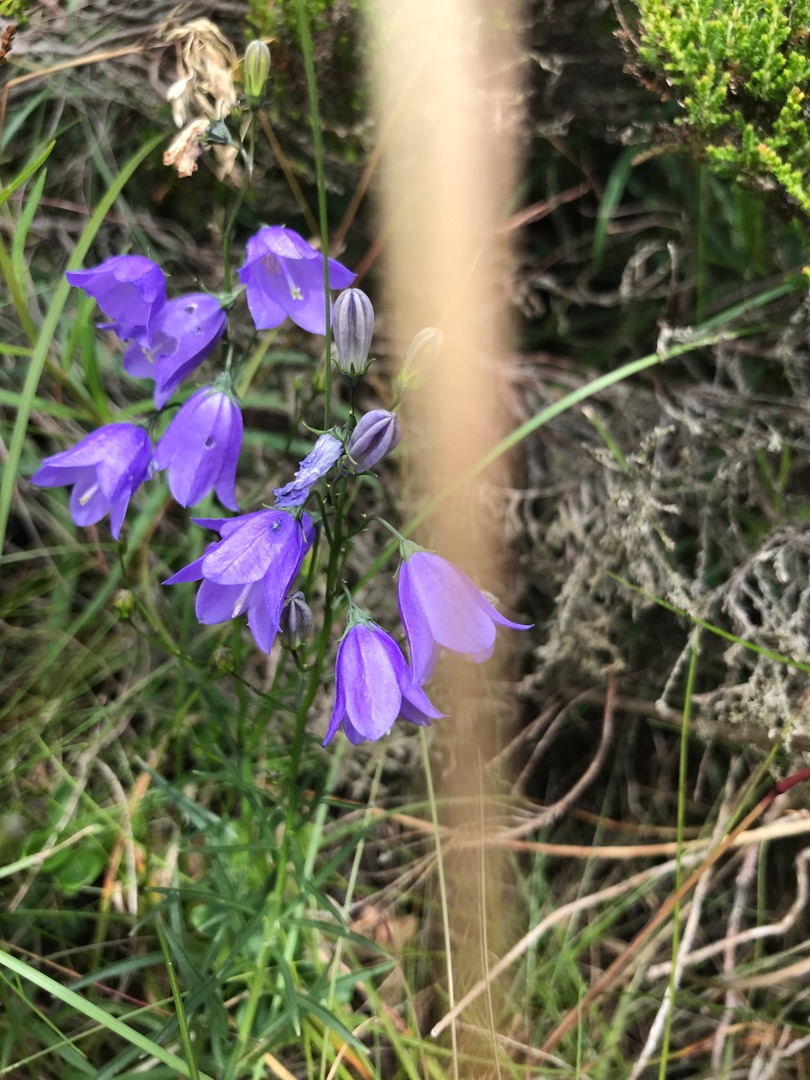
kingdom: Plantae
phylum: Tracheophyta
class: Magnoliopsida
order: Asterales
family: Campanulaceae
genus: Campanula
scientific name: Campanula rotundifolia
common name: Liden klokke
